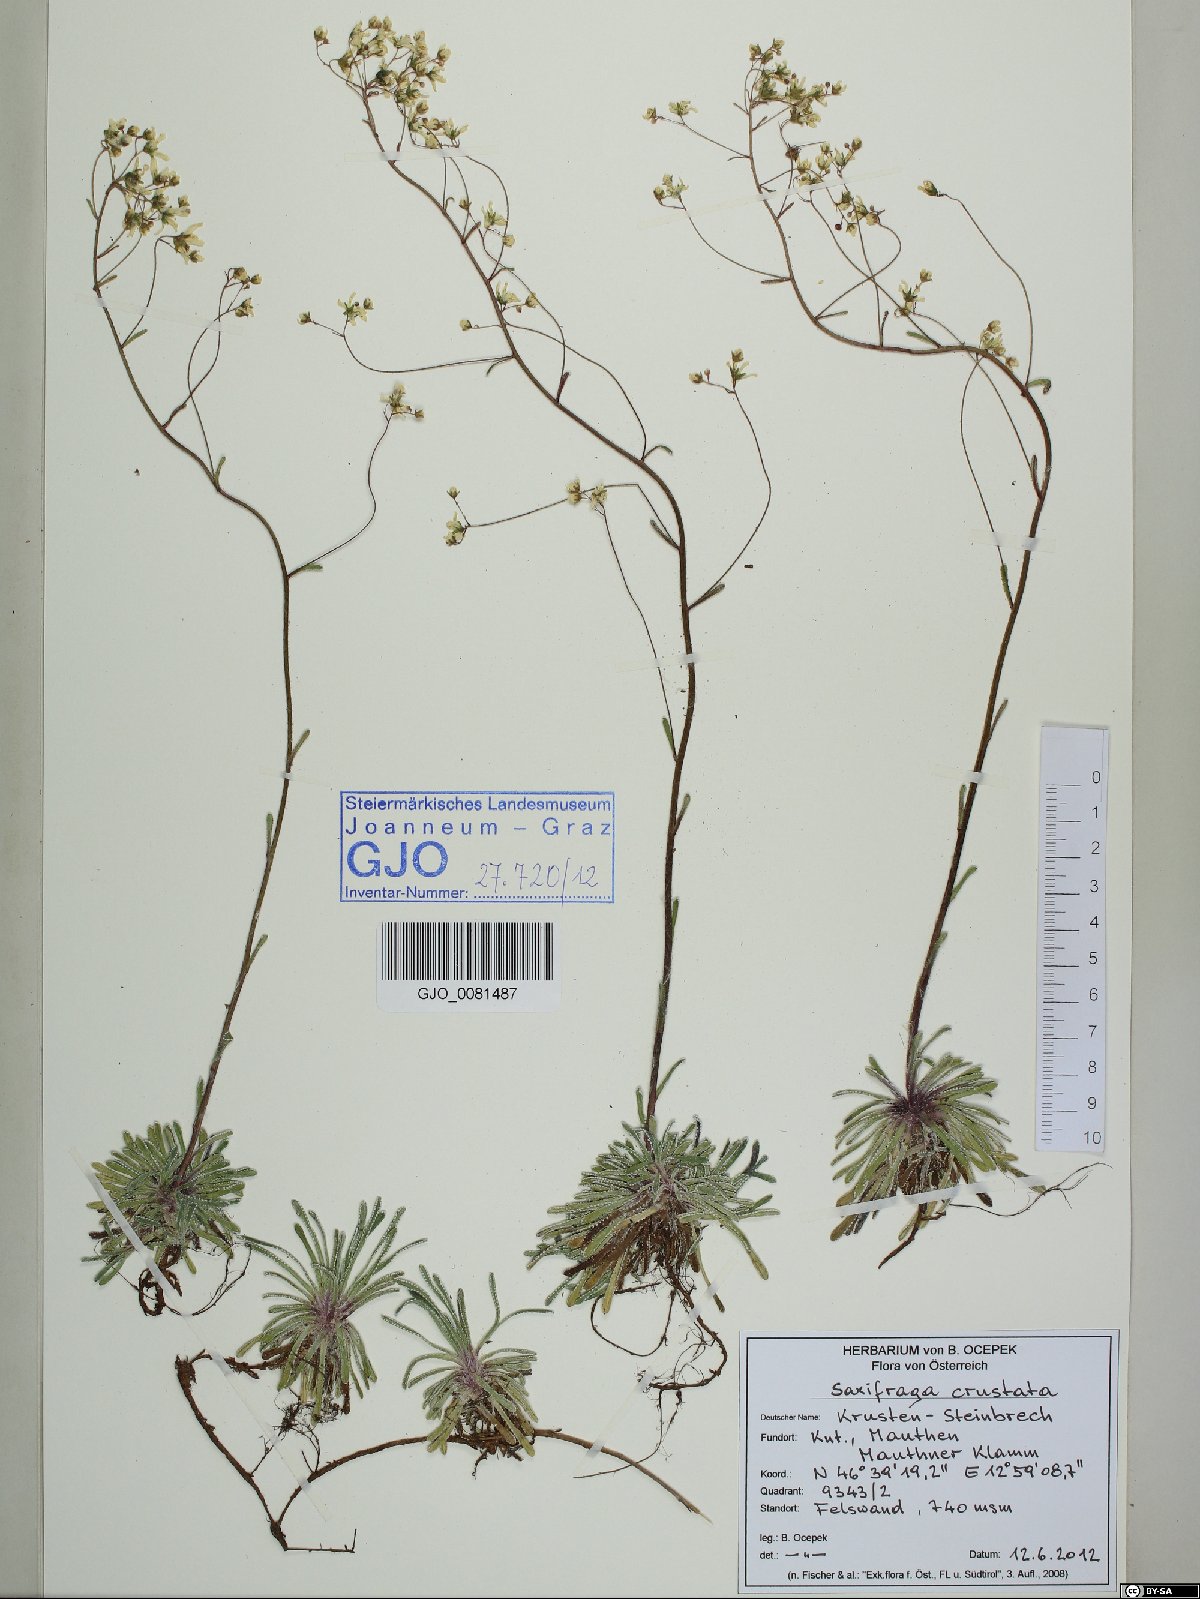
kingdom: Plantae
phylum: Tracheophyta
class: Magnoliopsida
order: Saxifragales
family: Saxifragaceae
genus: Saxifraga
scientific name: Saxifraga crustata
